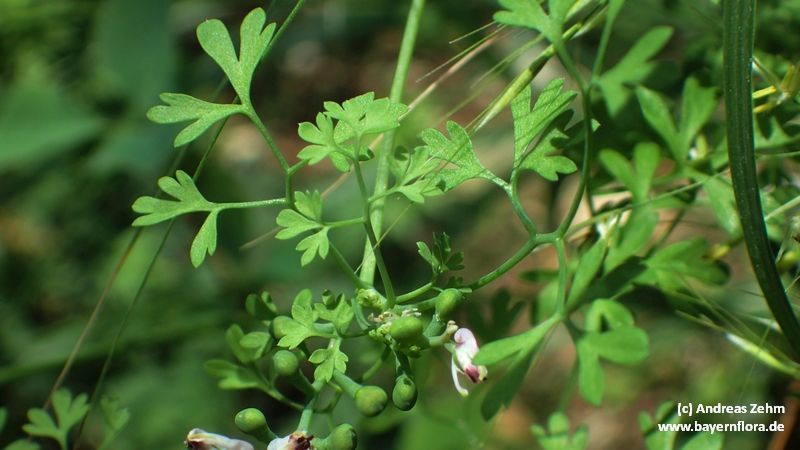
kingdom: Plantae
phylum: Tracheophyta
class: Magnoliopsida
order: Ranunculales
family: Papaveraceae
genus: Fumaria
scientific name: Fumaria capreolata
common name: White ramping-fumitory
